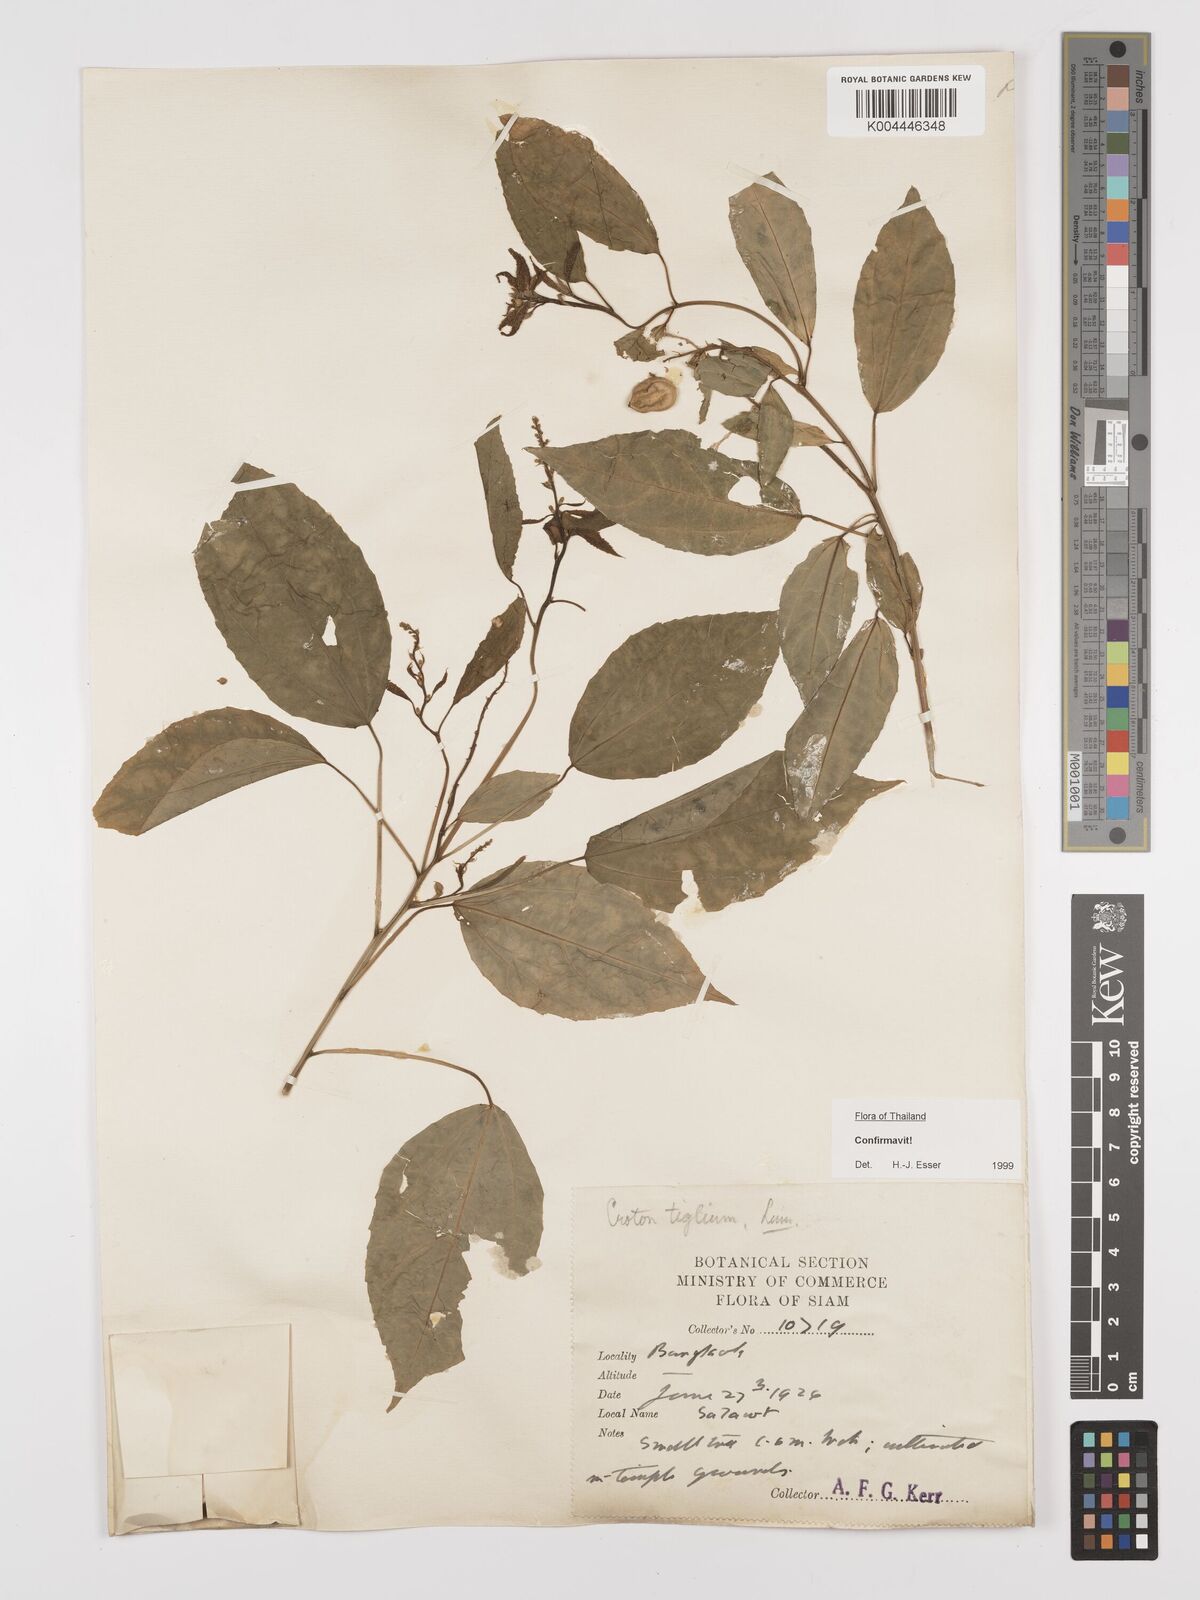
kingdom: Plantae
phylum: Tracheophyta
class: Magnoliopsida
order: Malpighiales
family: Euphorbiaceae
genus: Croton
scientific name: Croton tiglium
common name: Purging croton
